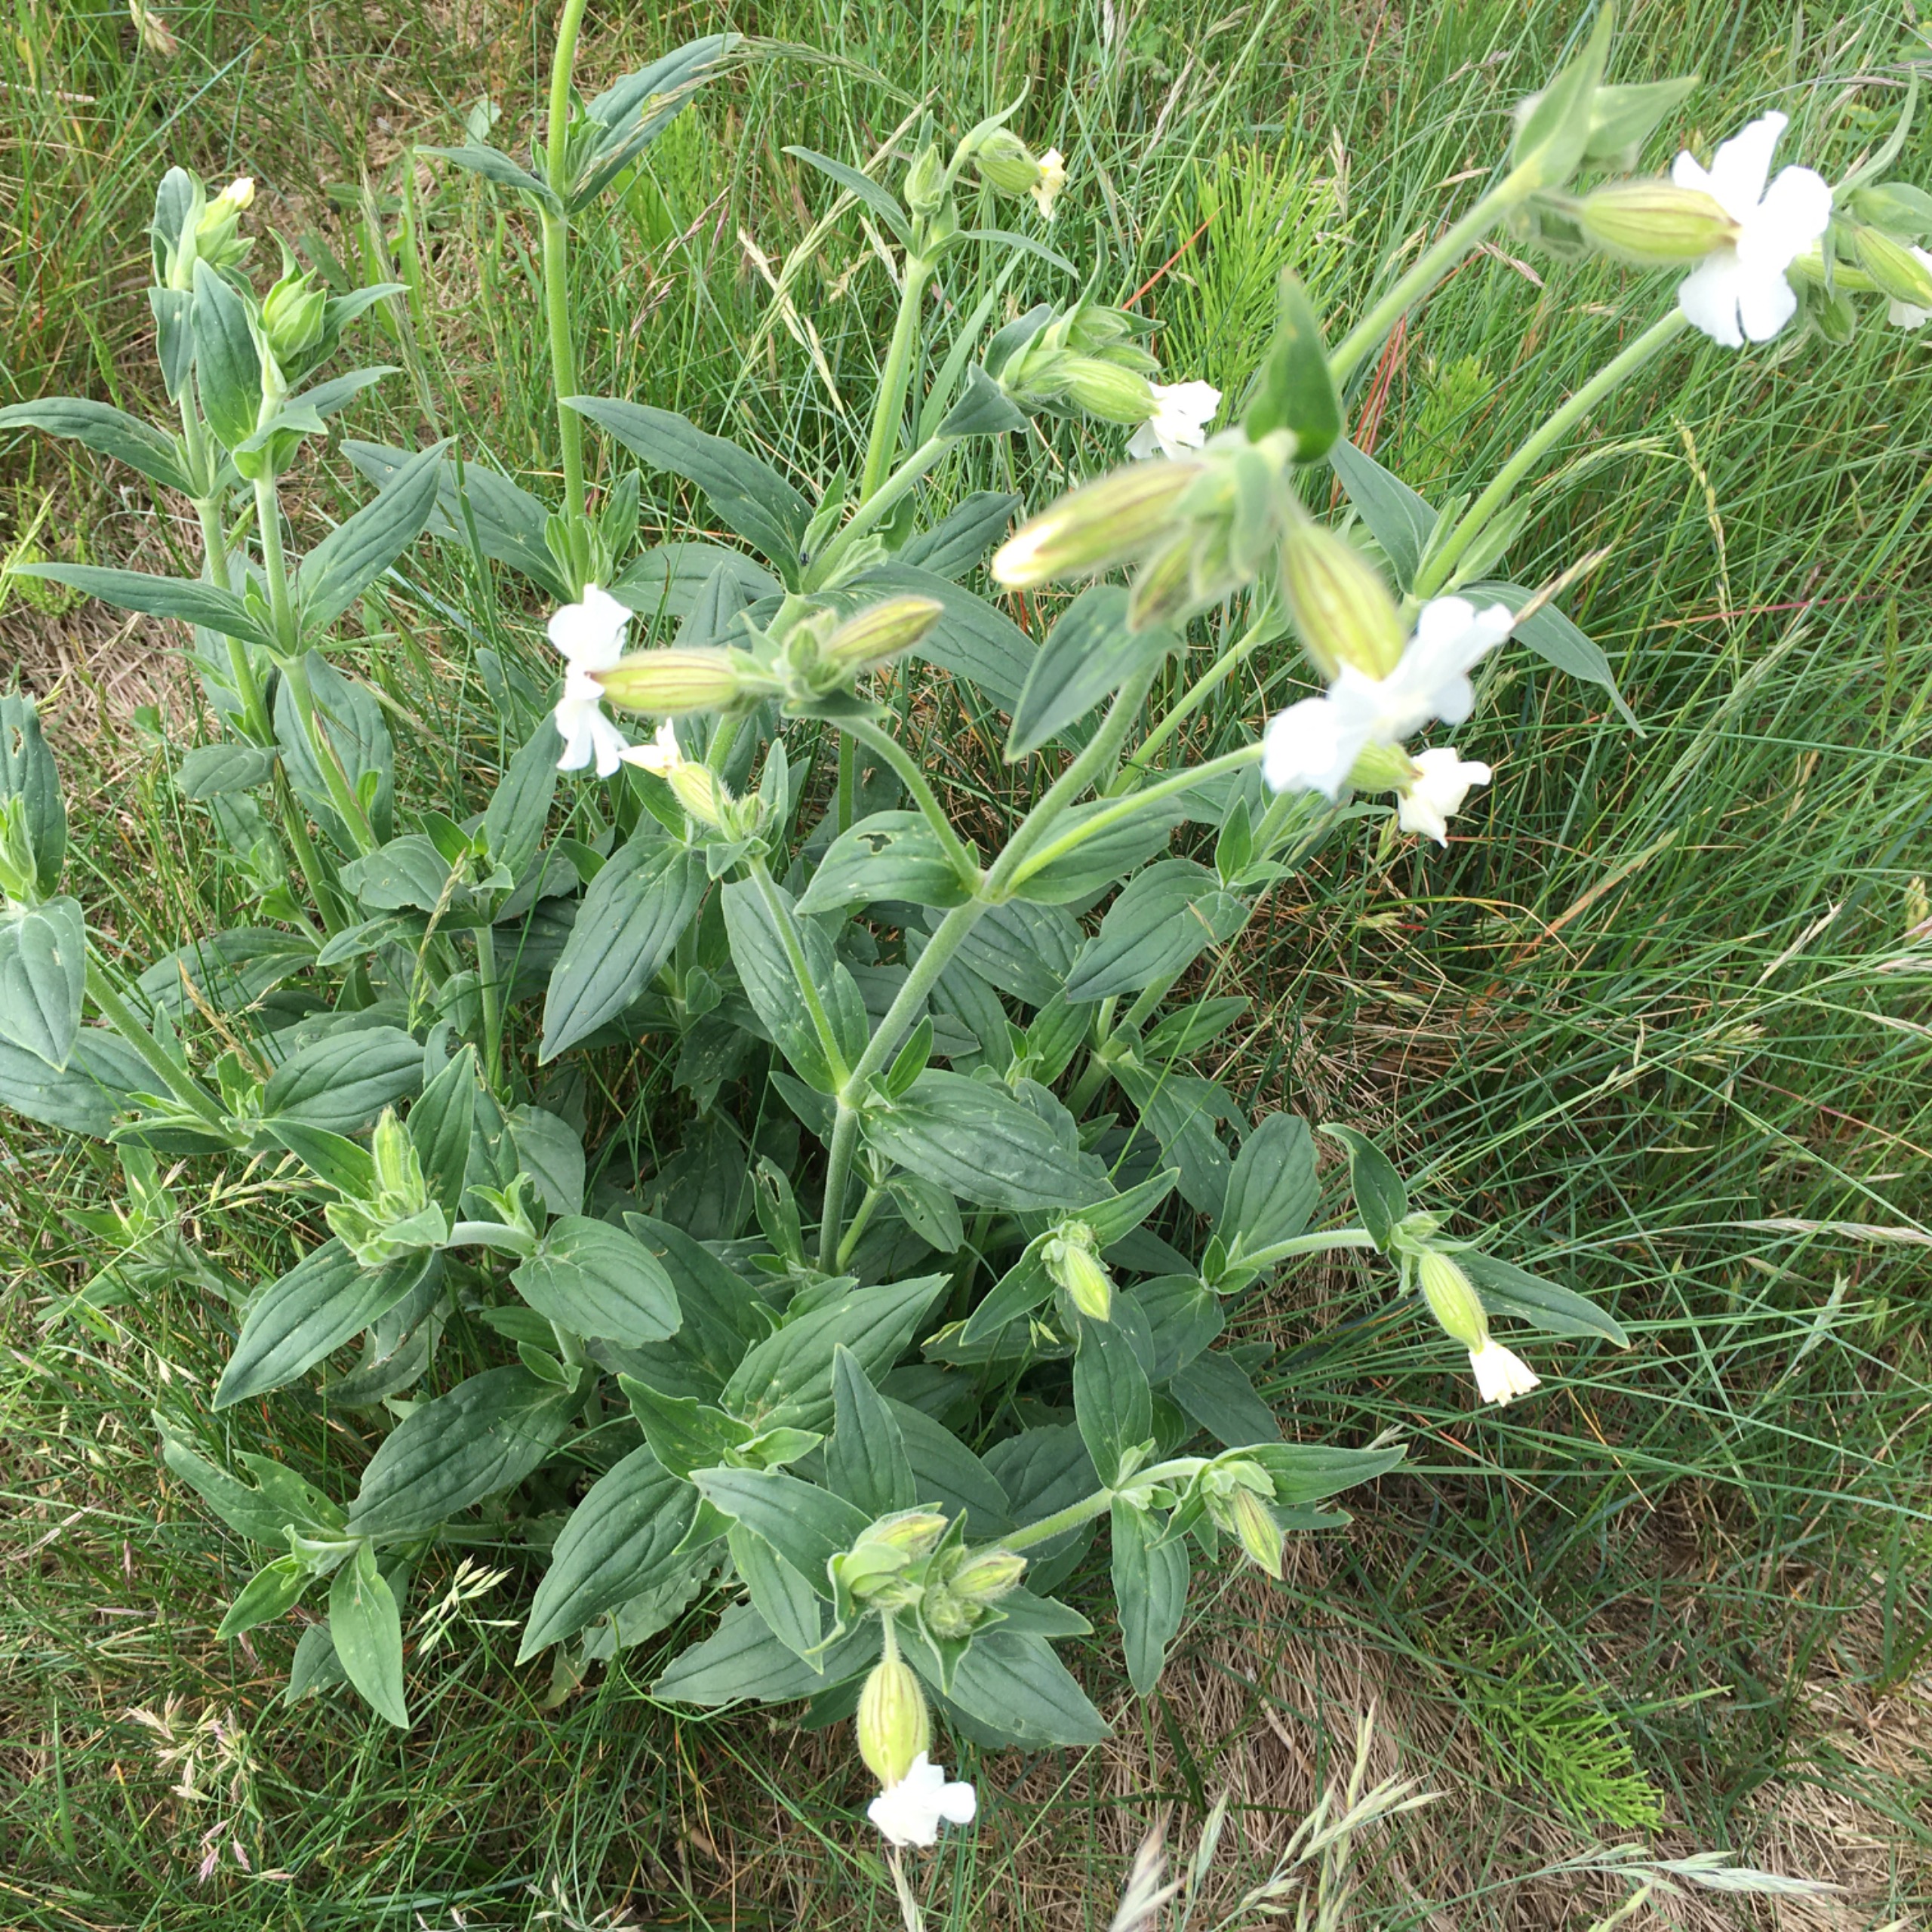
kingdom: Plantae
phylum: Tracheophyta
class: Magnoliopsida
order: Caryophyllales
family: Caryophyllaceae
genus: Silene
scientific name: Silene latifolia
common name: Aftenpragtstjerne
